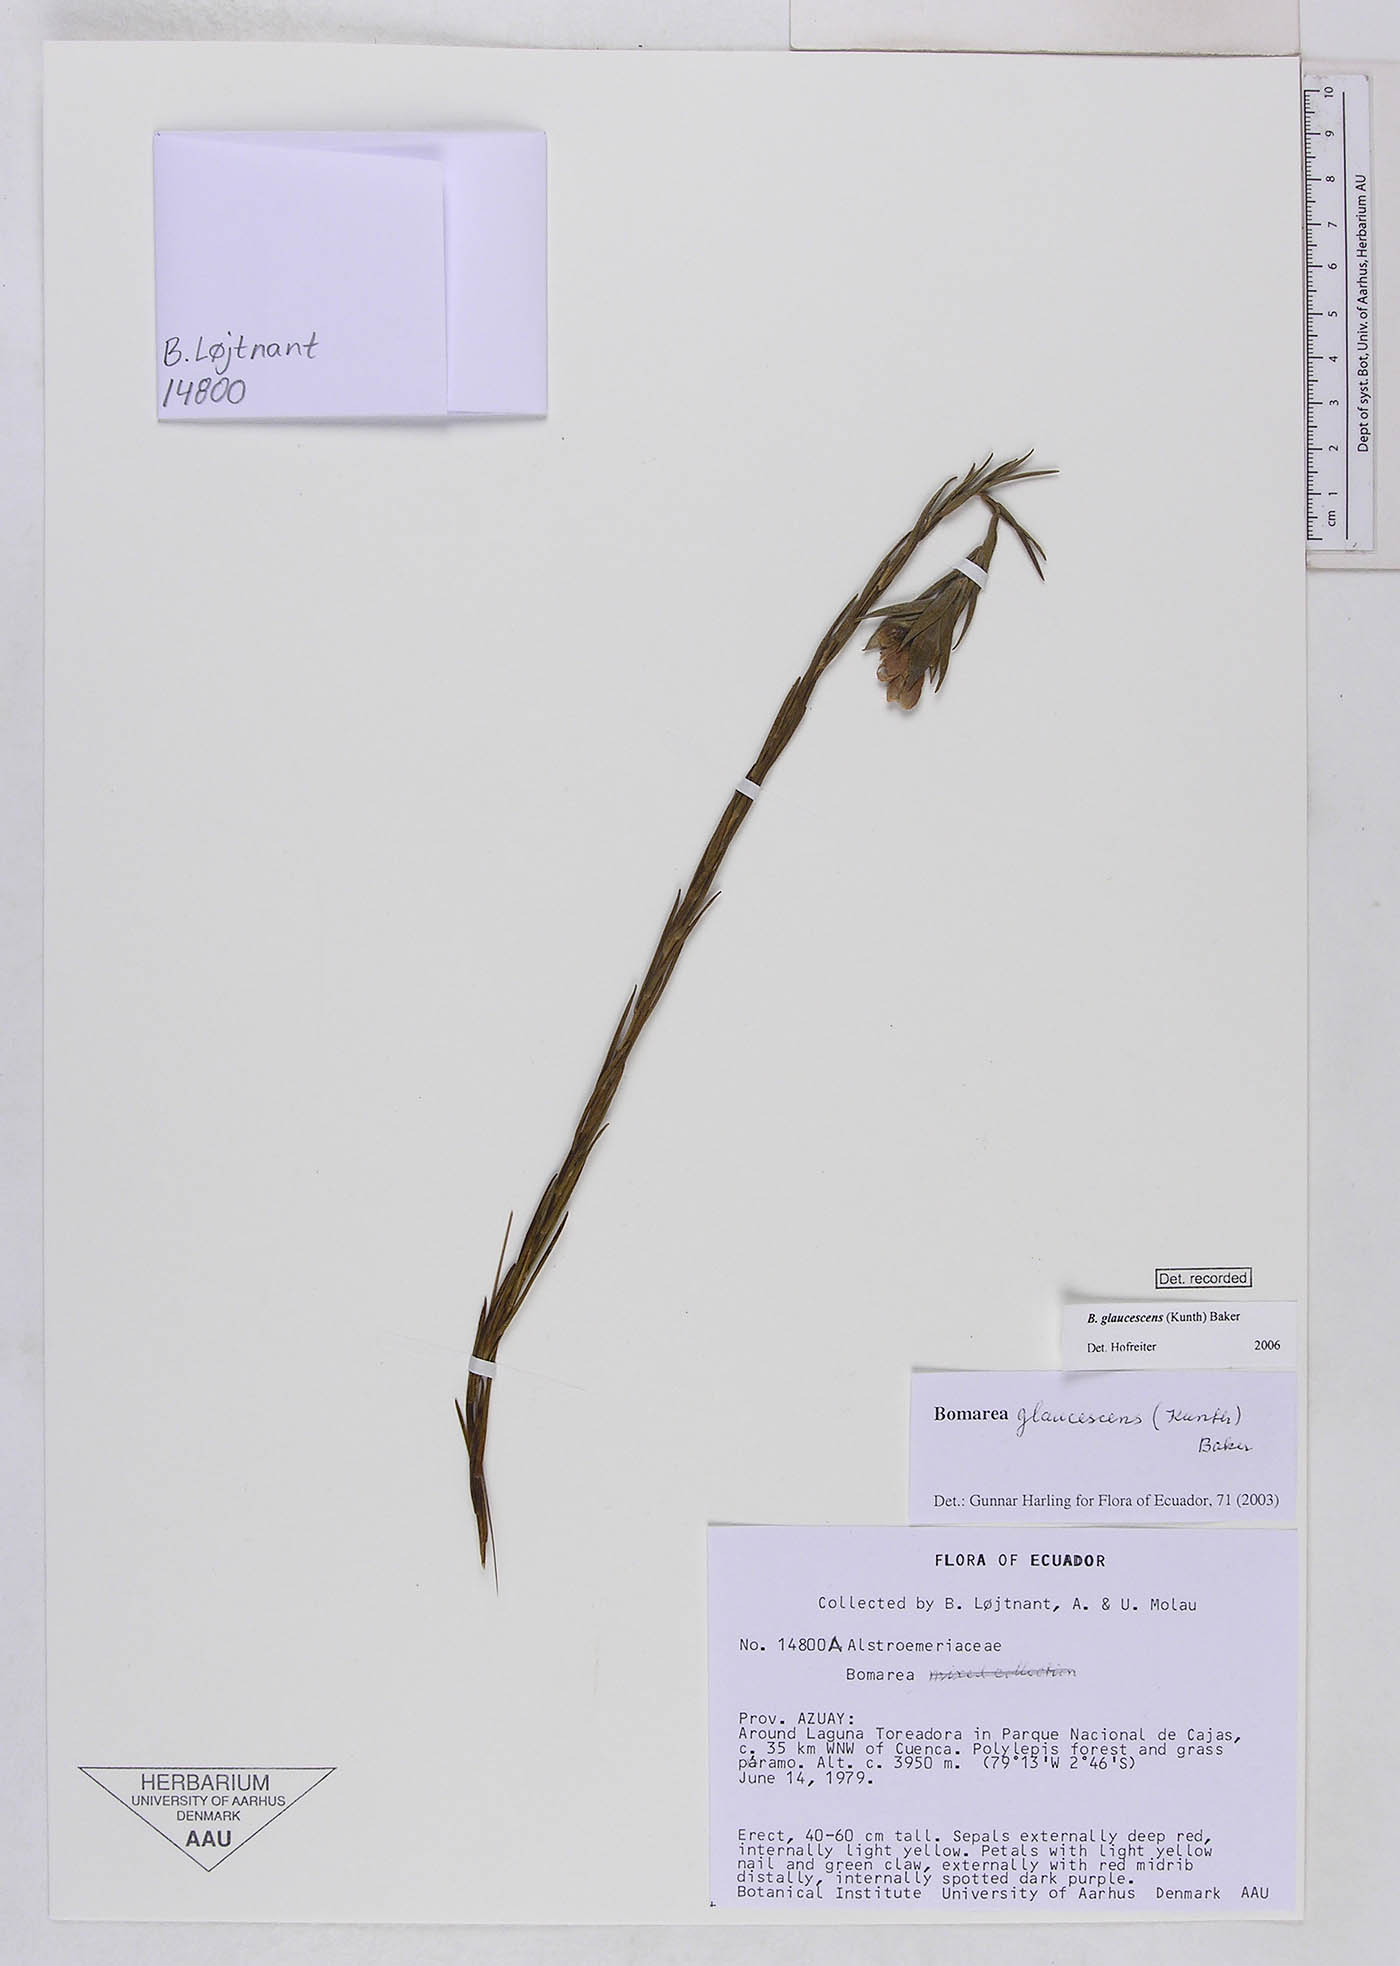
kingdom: Plantae
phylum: Tracheophyta
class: Liliopsida
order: Liliales
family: Alstroemeriaceae
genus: Bomarea
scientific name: Bomarea glaucescens
